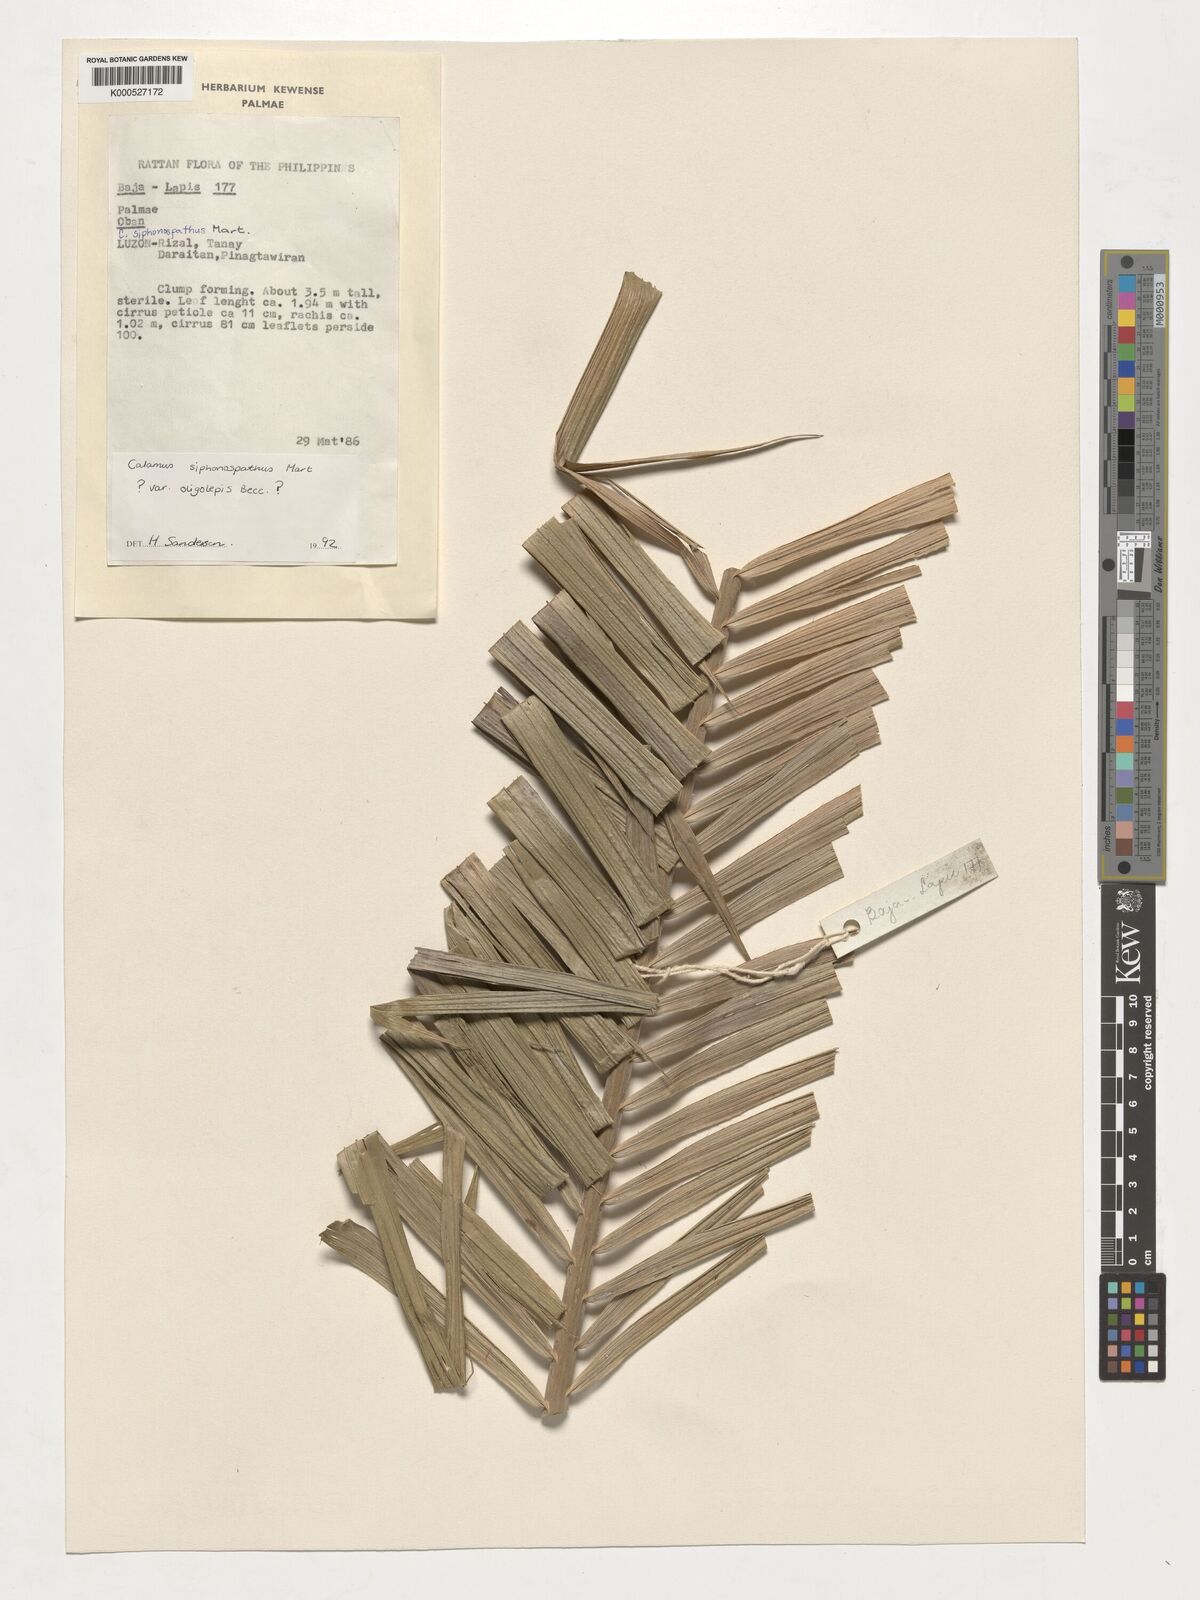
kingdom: Plantae
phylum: Tracheophyta
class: Liliopsida
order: Arecales
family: Arecaceae
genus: Calamus
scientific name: Calamus siphonospathus
